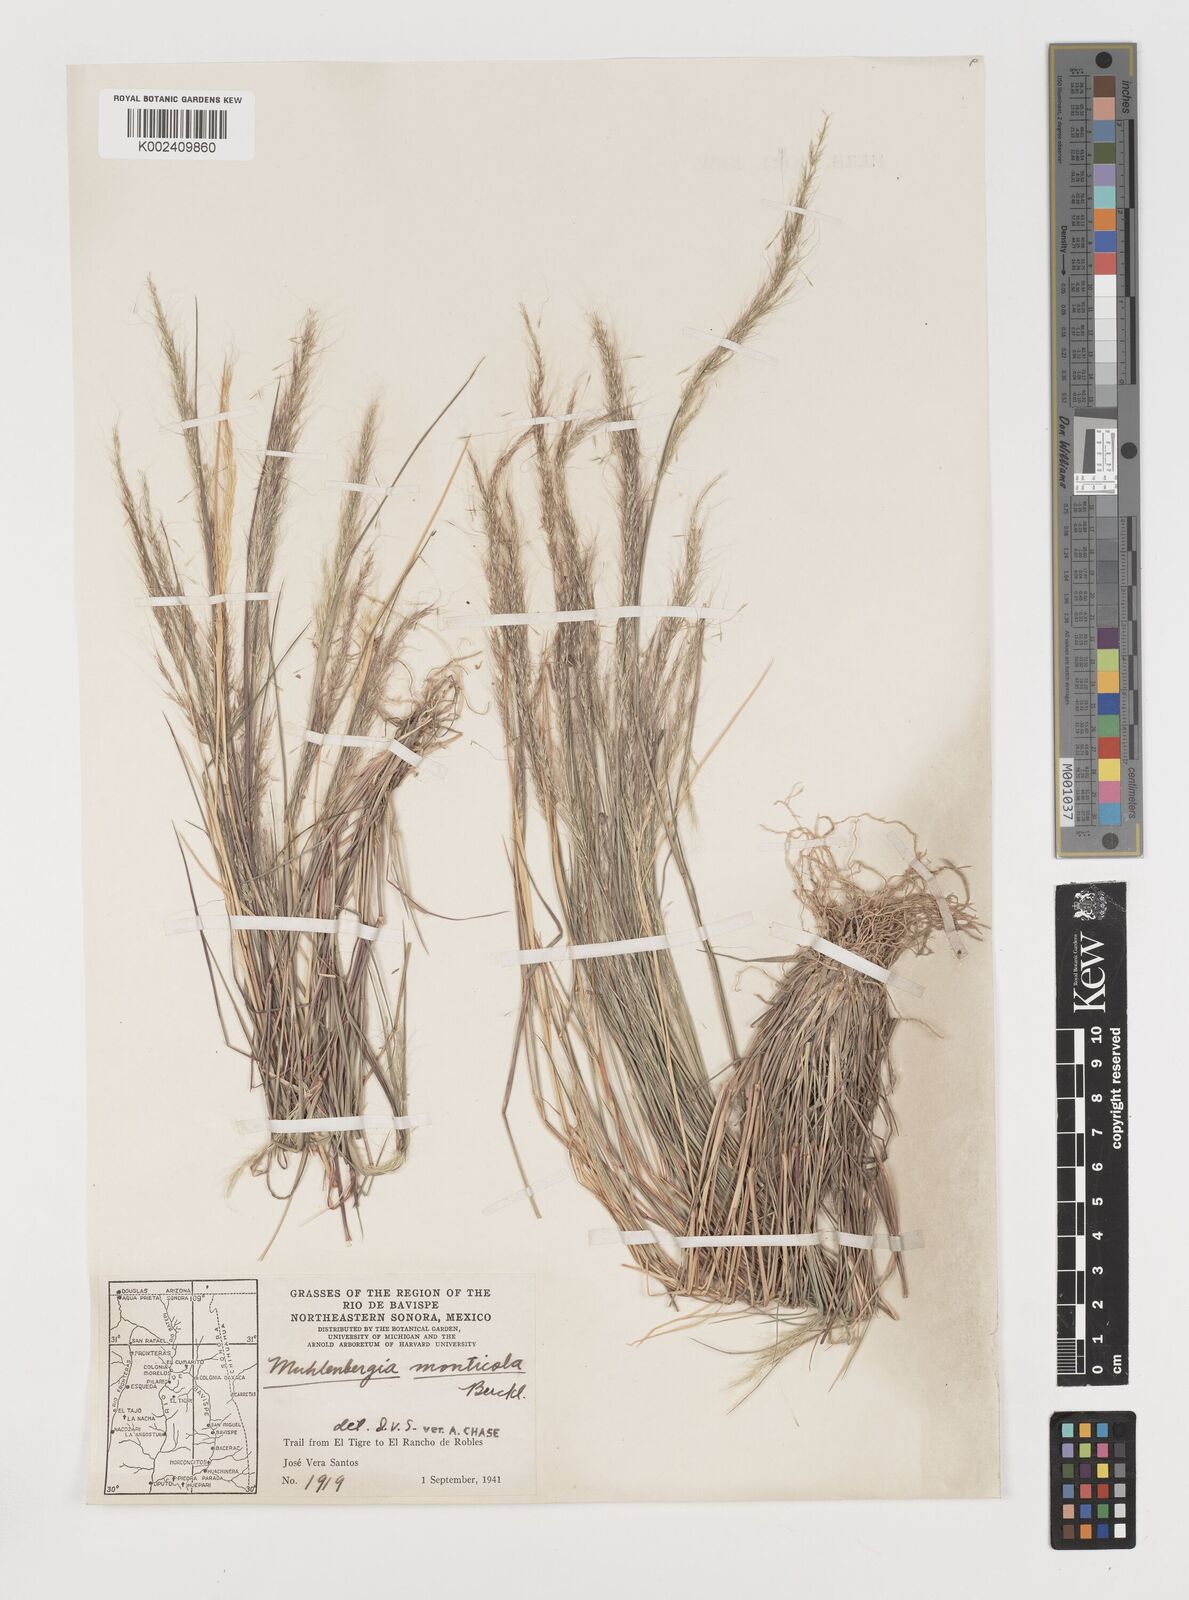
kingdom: Plantae
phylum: Tracheophyta
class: Liliopsida
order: Poales
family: Poaceae
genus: Muhlenbergia
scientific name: Muhlenbergia tenuifolia
